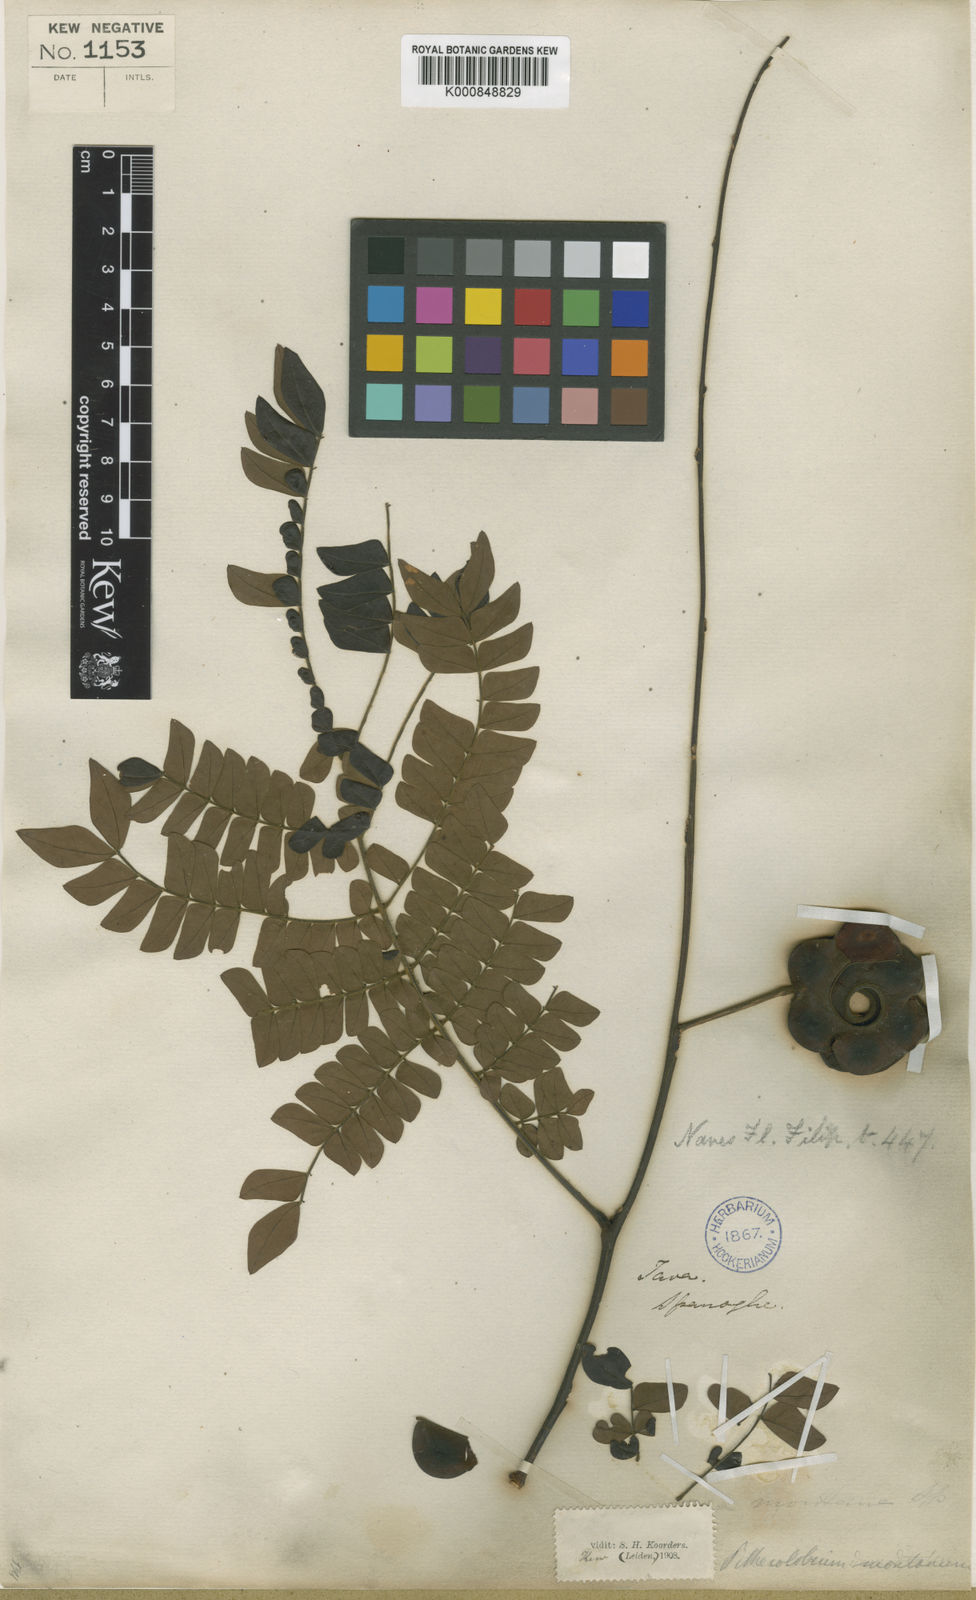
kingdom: Plantae
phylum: Tracheophyta
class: Magnoliopsida
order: Fabales
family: Fabaceae
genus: Archidendron
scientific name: Archidendron clypearia
